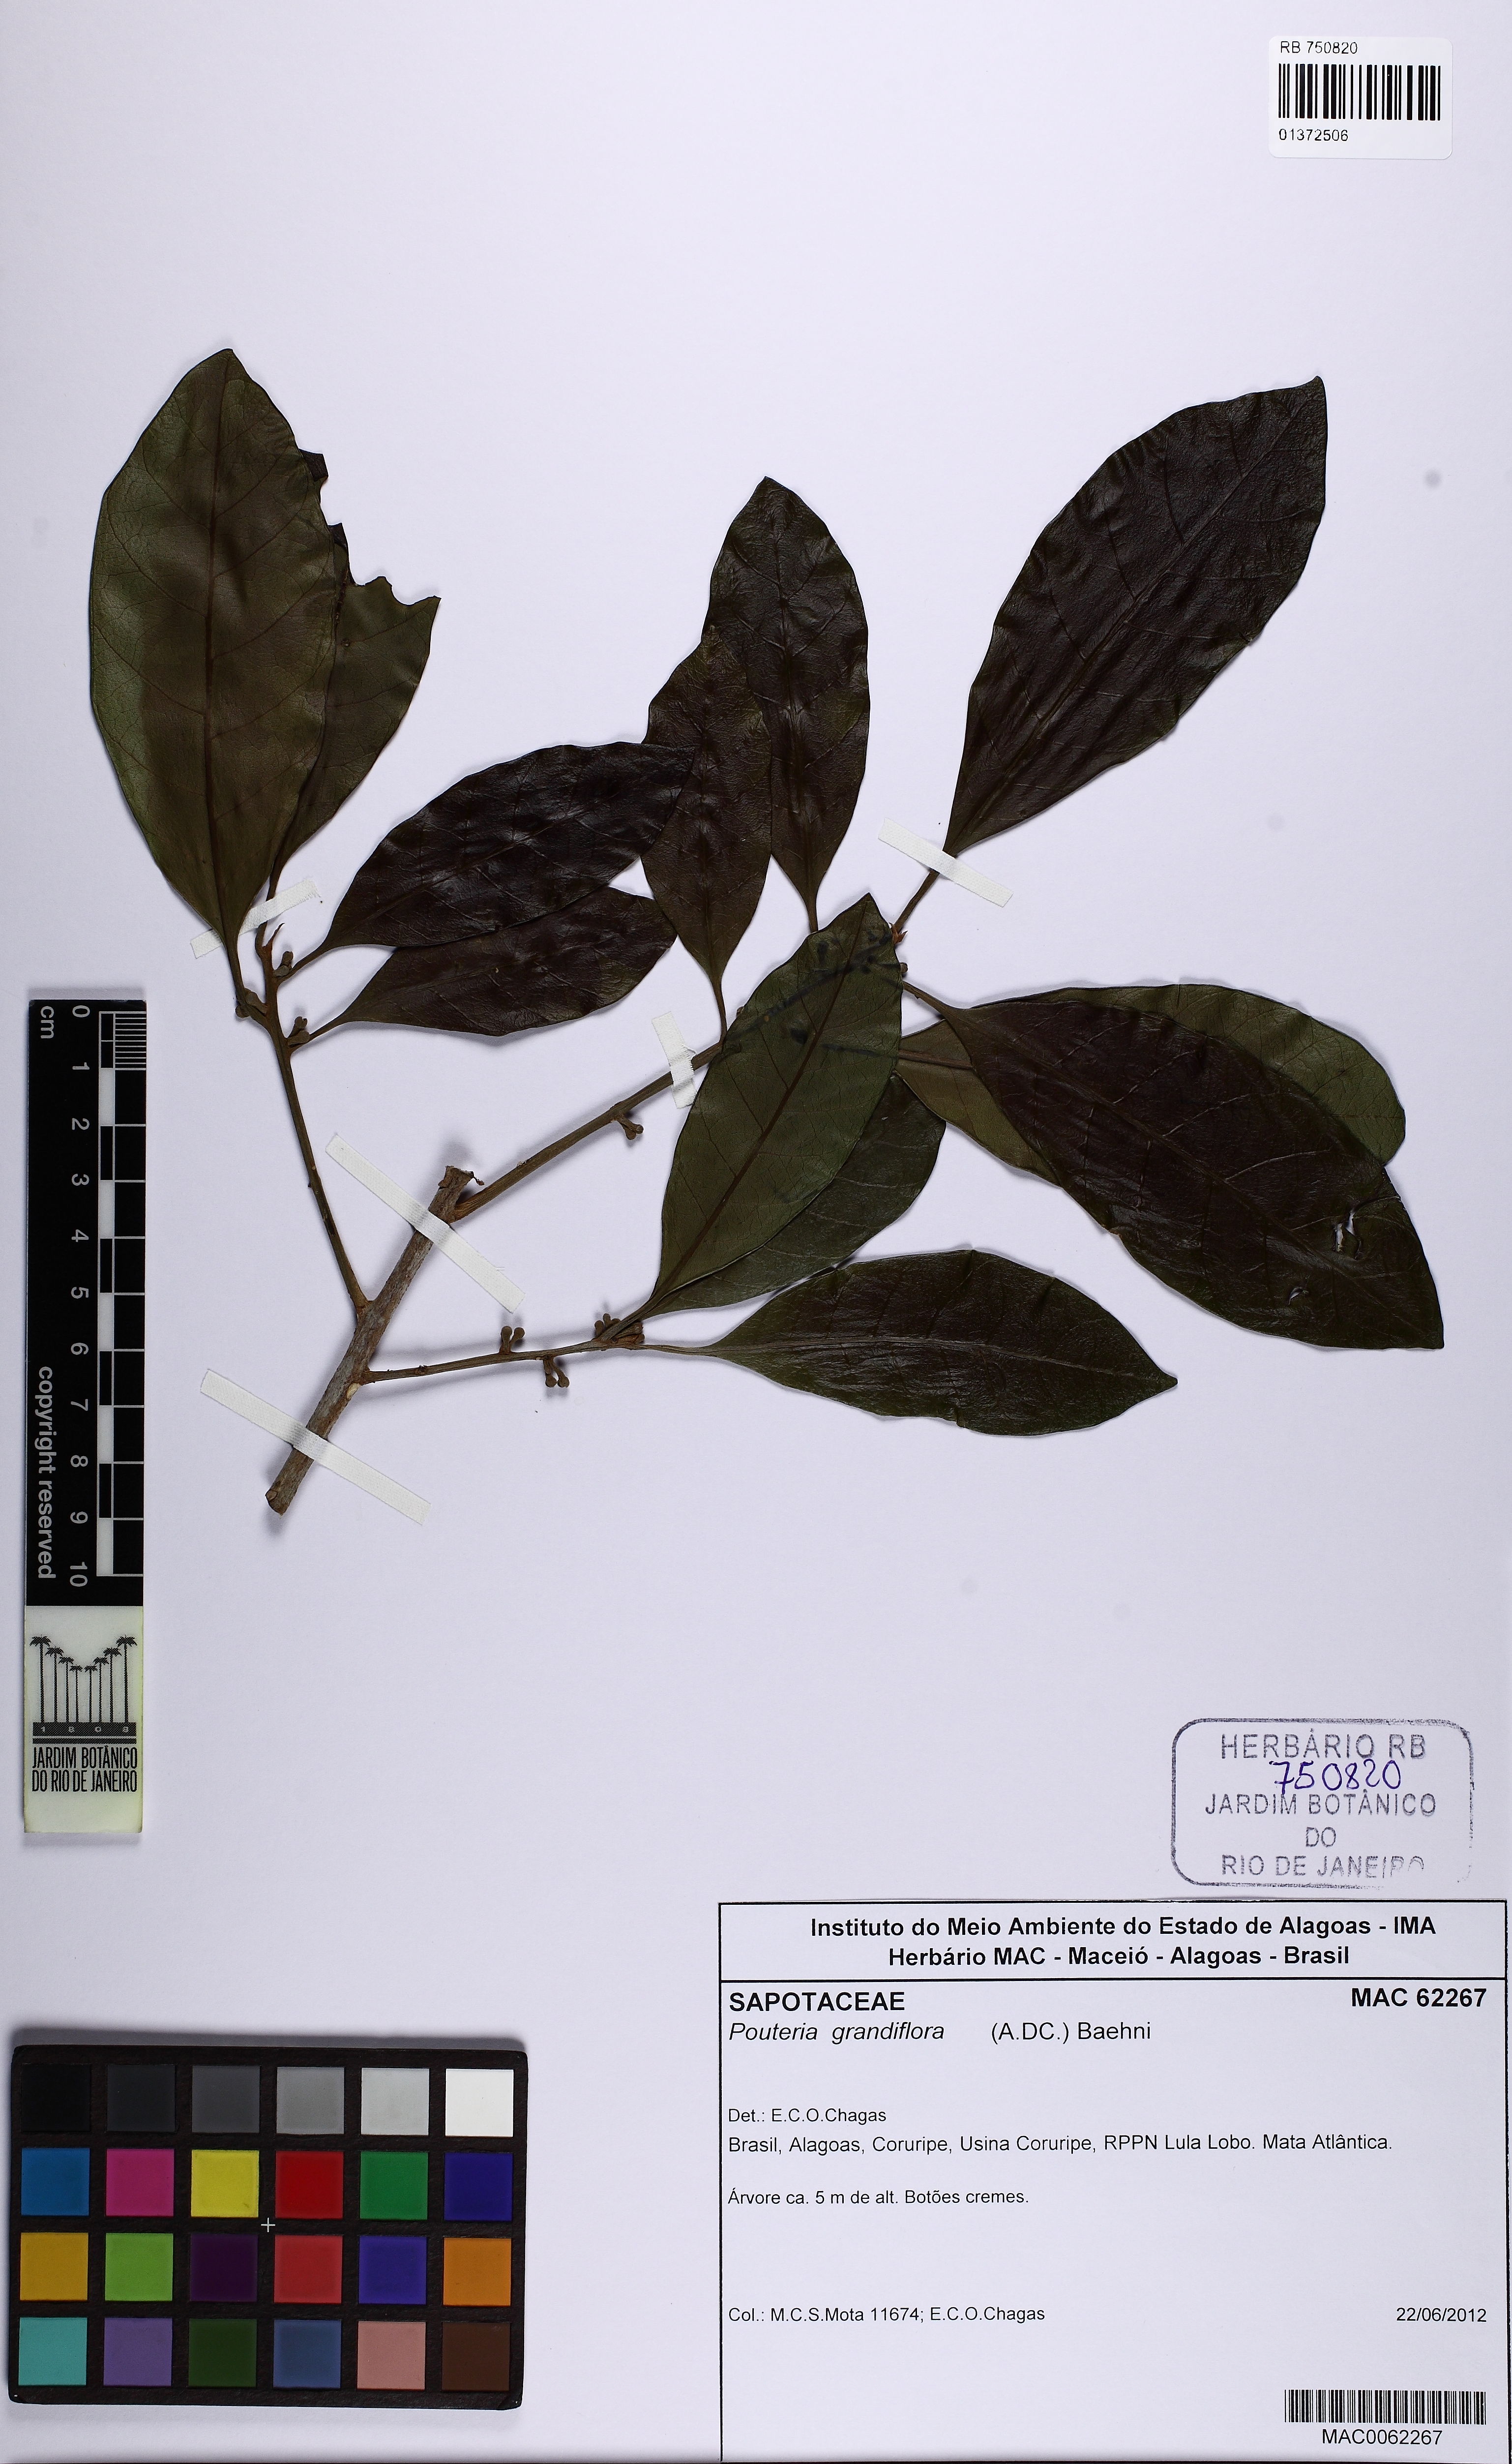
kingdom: Plantae
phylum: Tracheophyta
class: Magnoliopsida
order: Ericales
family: Sapotaceae
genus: Pouteria
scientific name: Pouteria grandiflora
